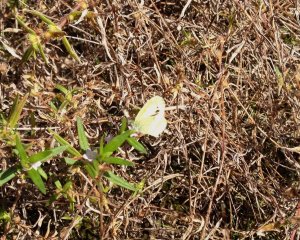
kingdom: Animalia
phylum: Arthropoda
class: Insecta
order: Lepidoptera
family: Pieridae
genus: Nathalis
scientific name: Nathalis iole
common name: Dainty Sulphur
